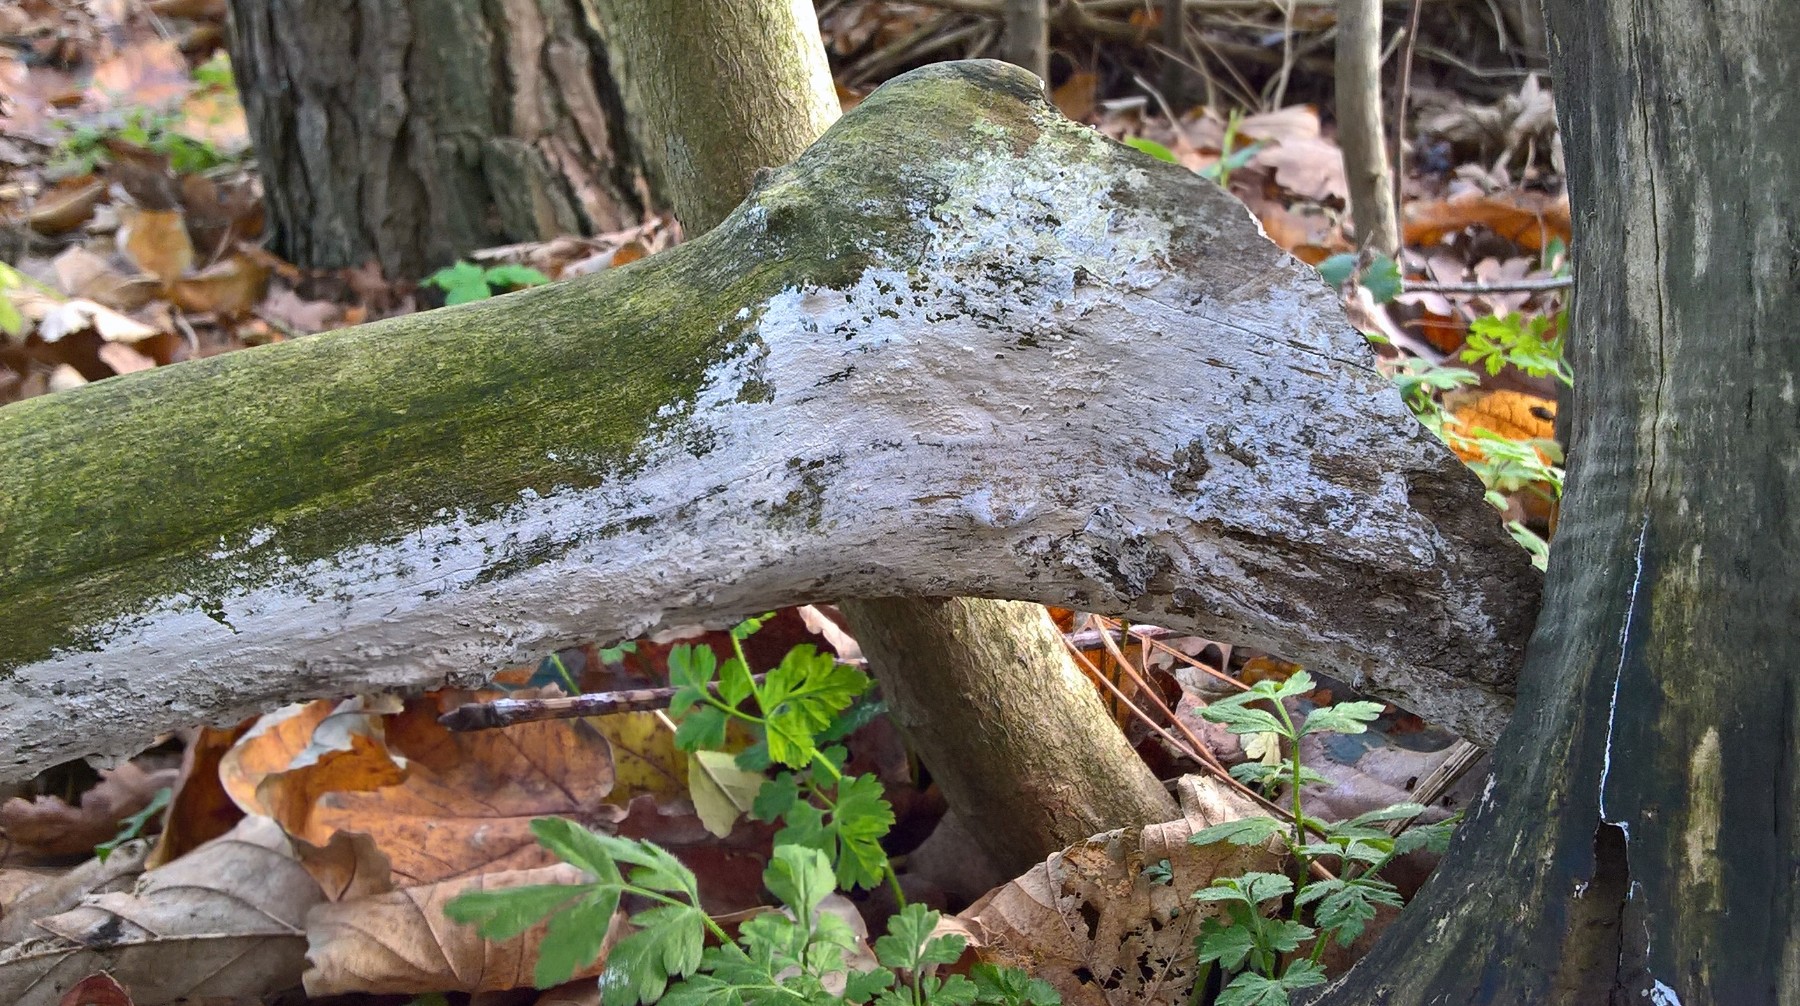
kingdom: Fungi
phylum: Basidiomycota
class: Agaricomycetes
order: Corticiales
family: Corticiaceae
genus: Lyomyces
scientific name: Lyomyces sambuci
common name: almindelig hyldehinde
